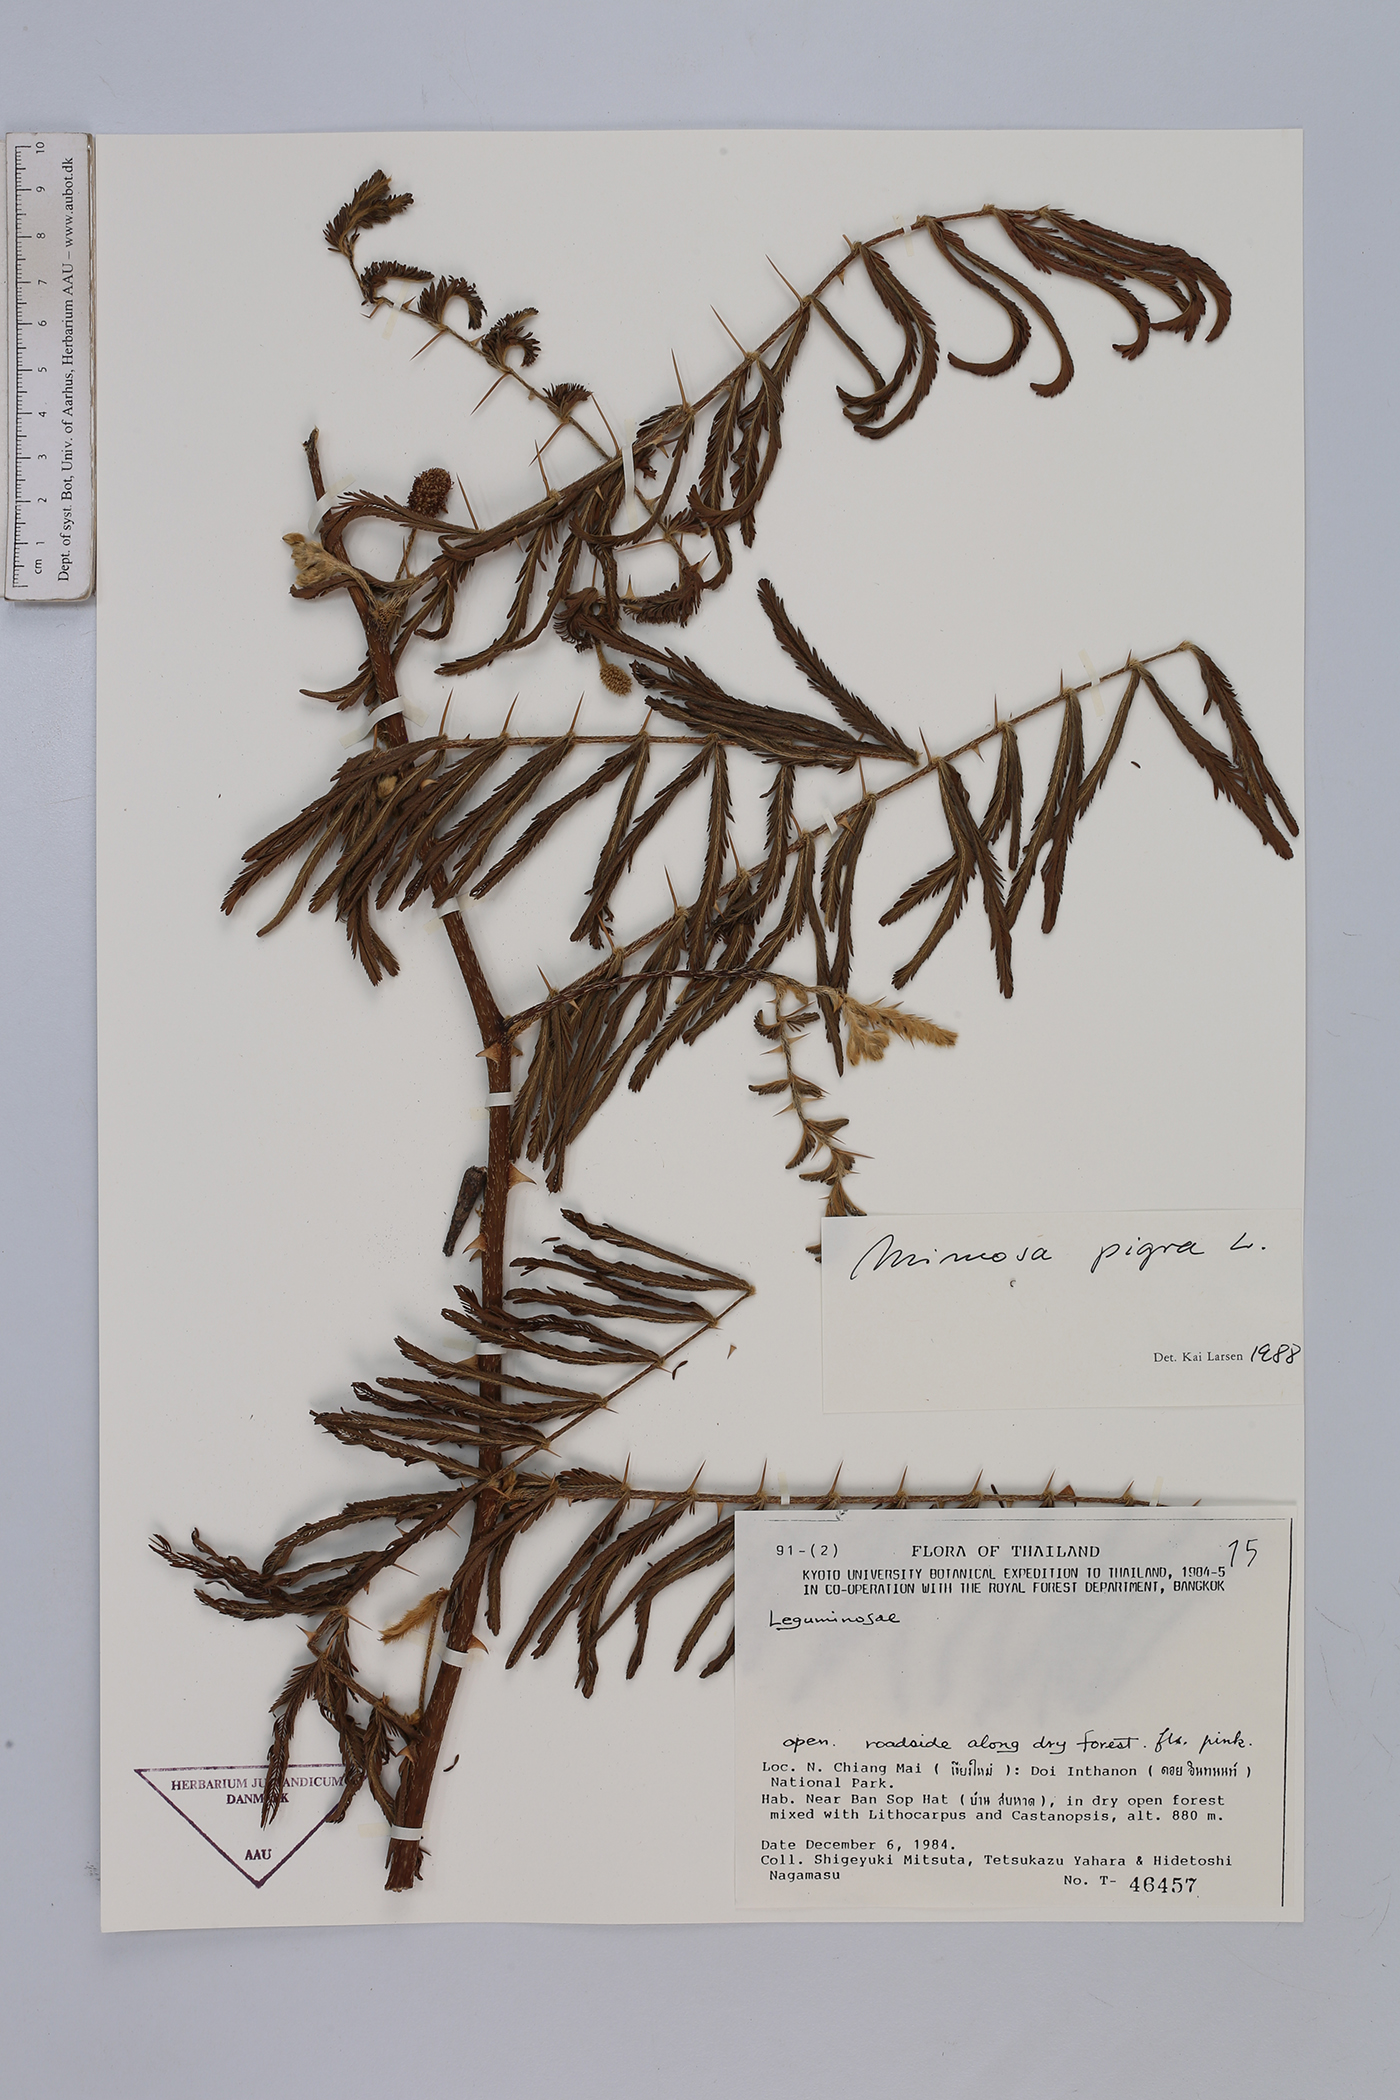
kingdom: Plantae
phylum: Tracheophyta
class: Magnoliopsida
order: Fabales
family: Fabaceae
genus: Mimosa
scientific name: Mimosa pigra
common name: Black mimosa
